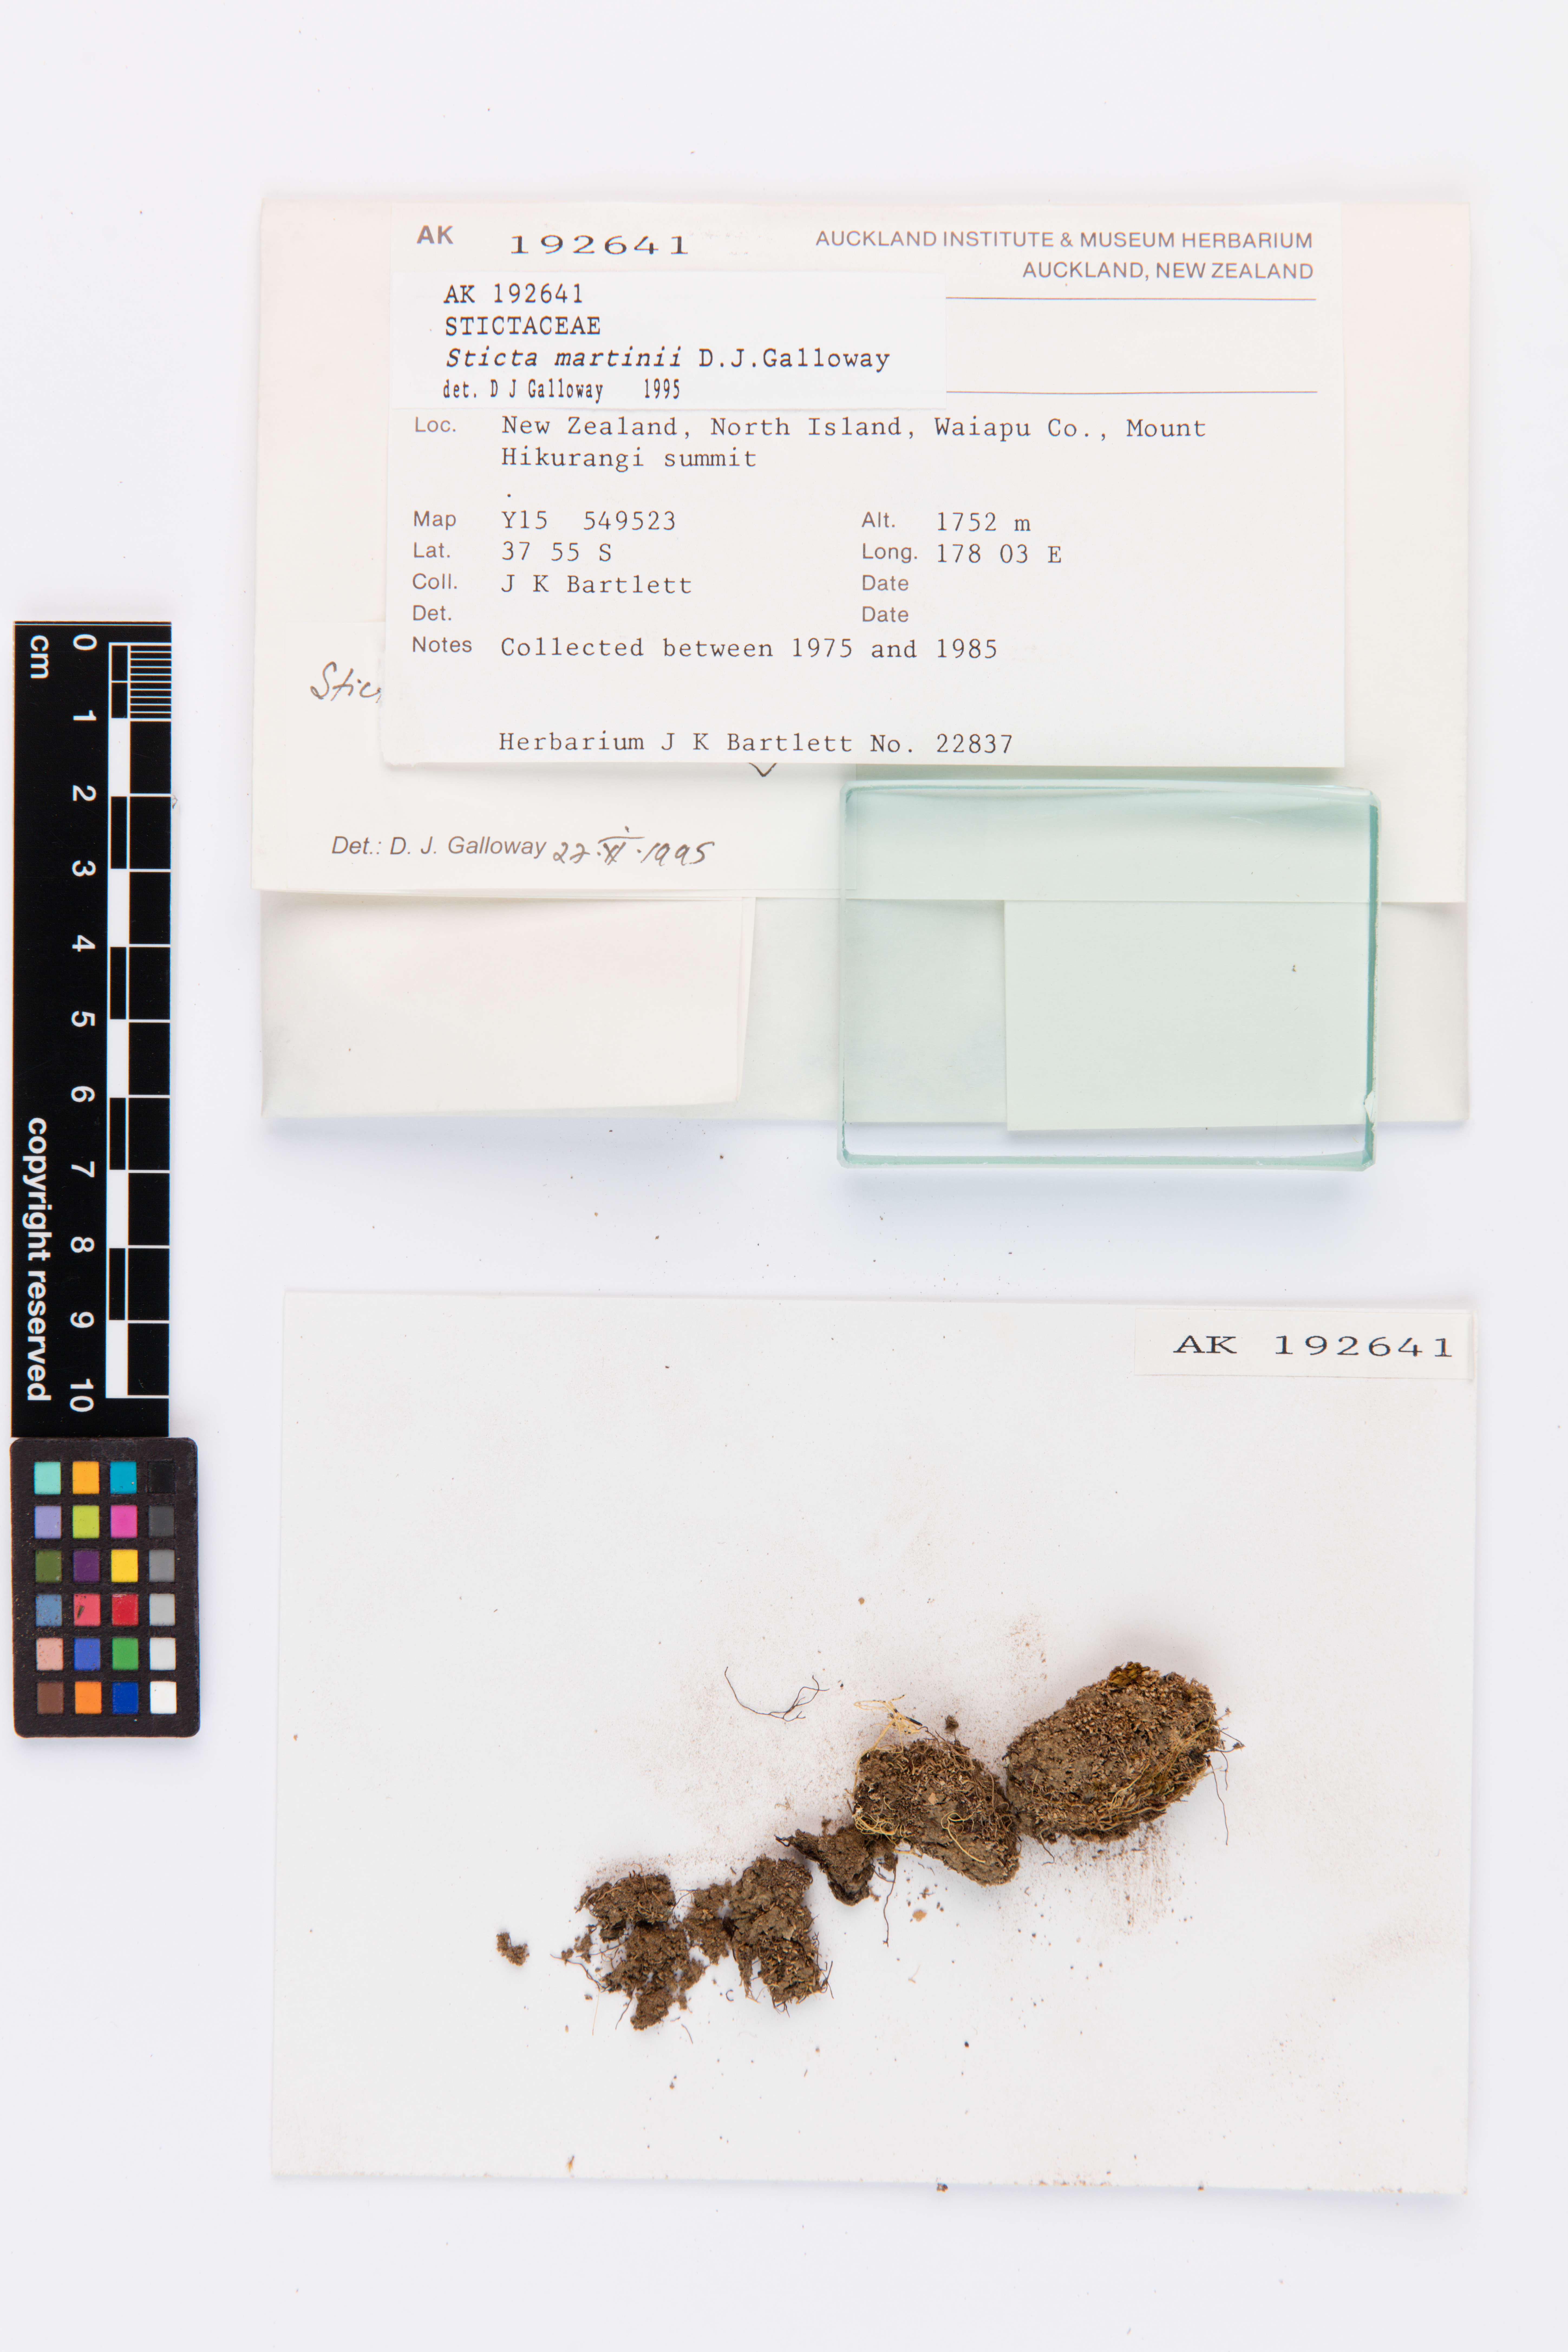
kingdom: Fungi
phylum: Ascomycota
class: Lecanoromycetes
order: Peltigerales
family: Lobariaceae
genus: Sticta
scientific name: Sticta martinii
